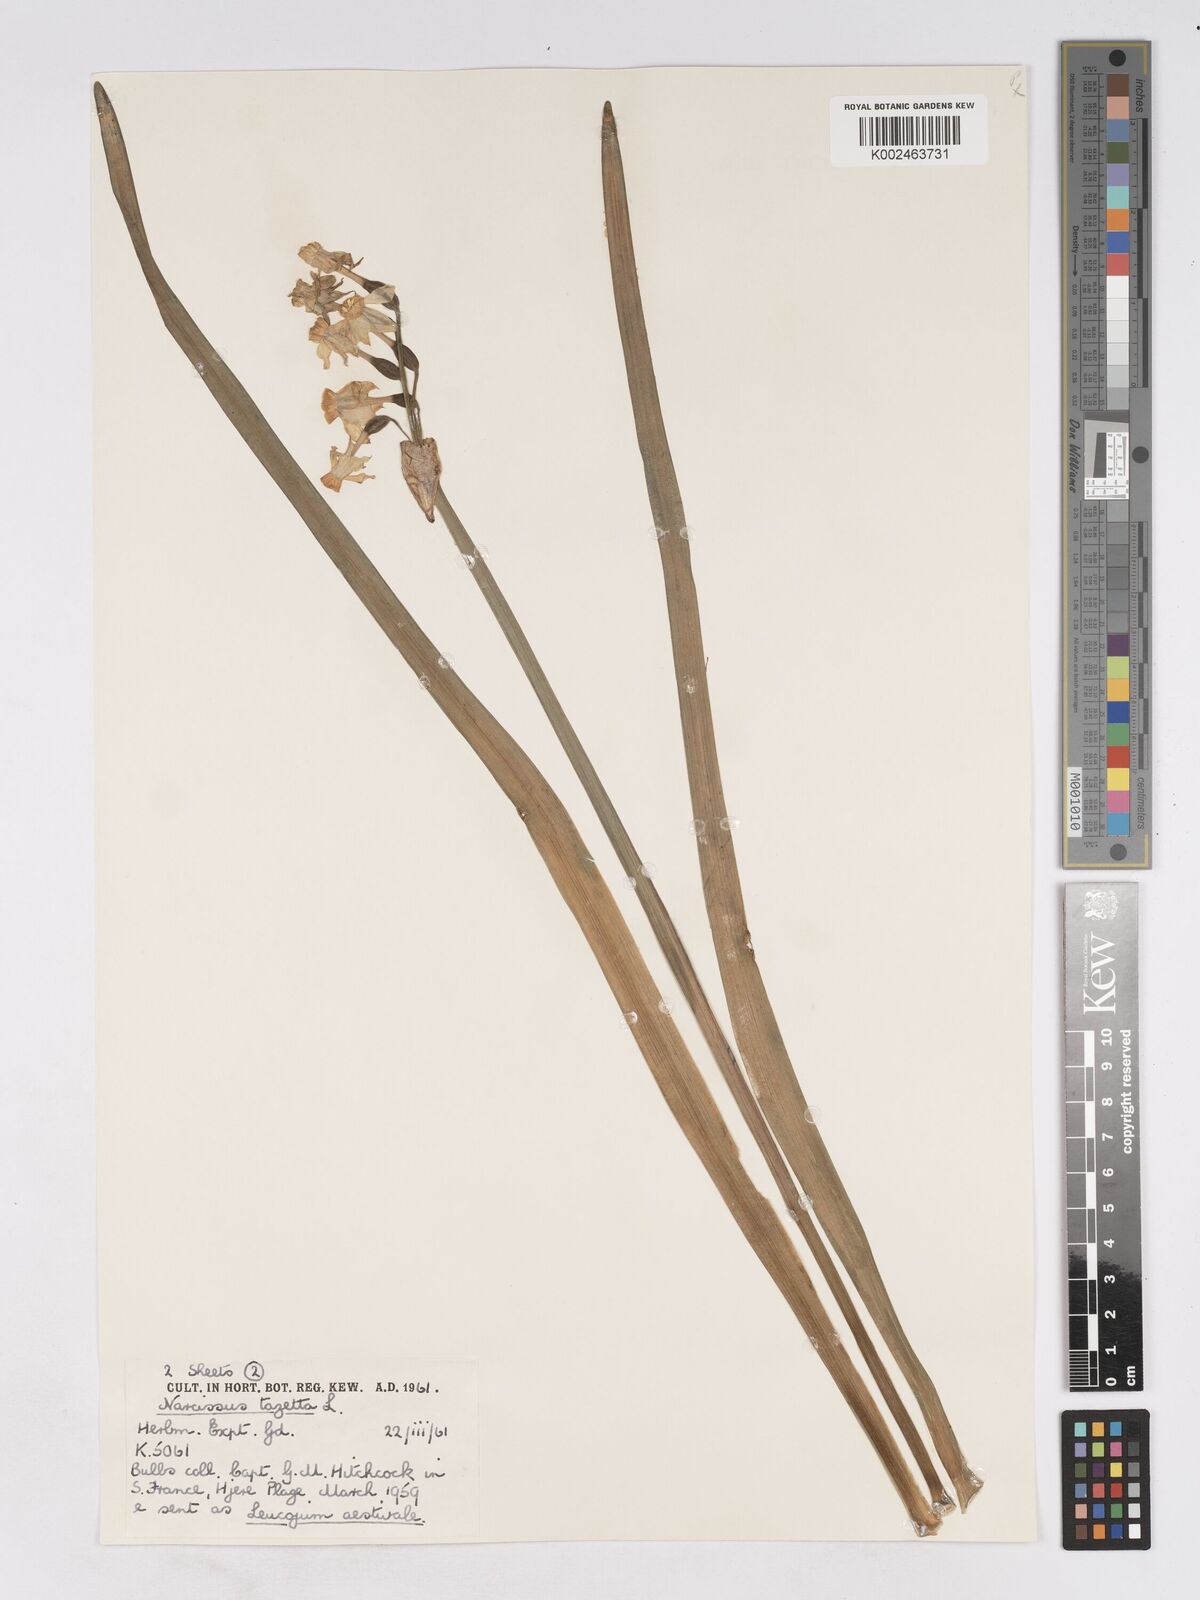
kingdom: Plantae
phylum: Tracheophyta
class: Liliopsida
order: Asparagales
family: Amaryllidaceae
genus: Narcissus
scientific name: Narcissus tazetta
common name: Bunch-flowered daffodil
